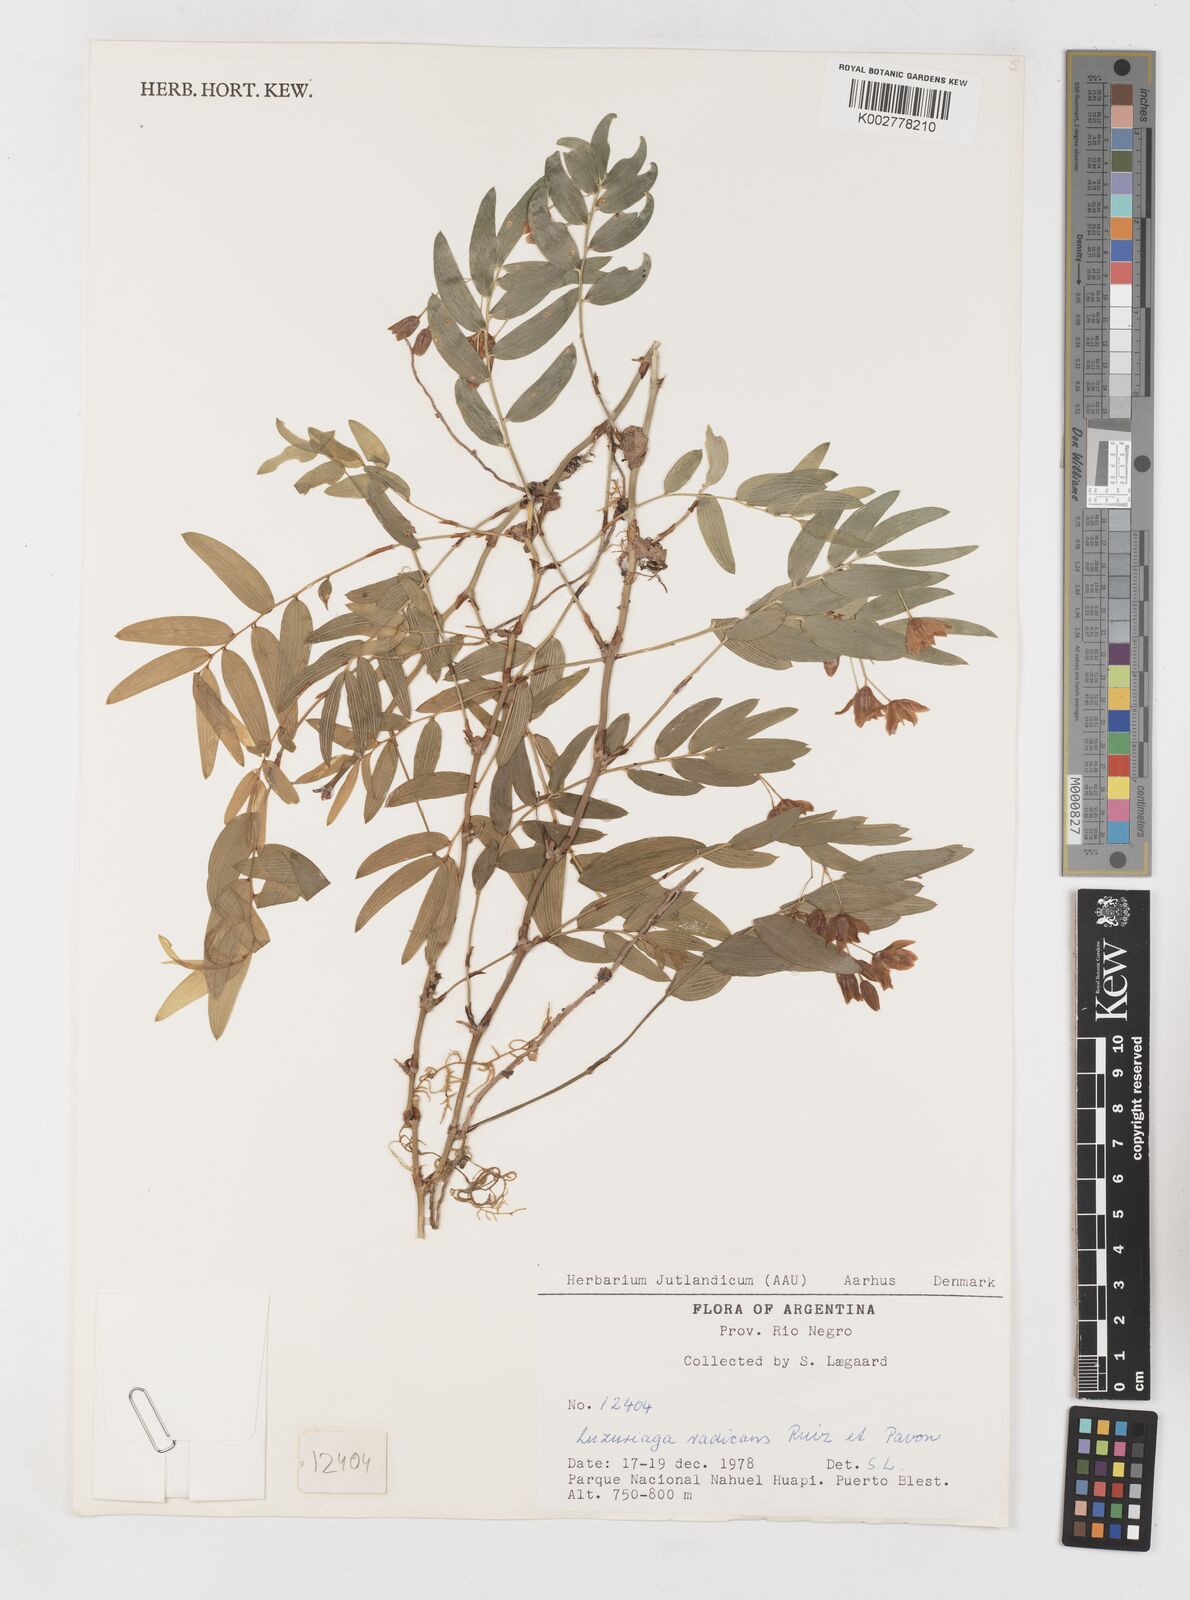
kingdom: Plantae
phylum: Tracheophyta
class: Liliopsida
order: Liliales
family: Alstroemeriaceae
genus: Luzuriaga
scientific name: Luzuriaga radicans
